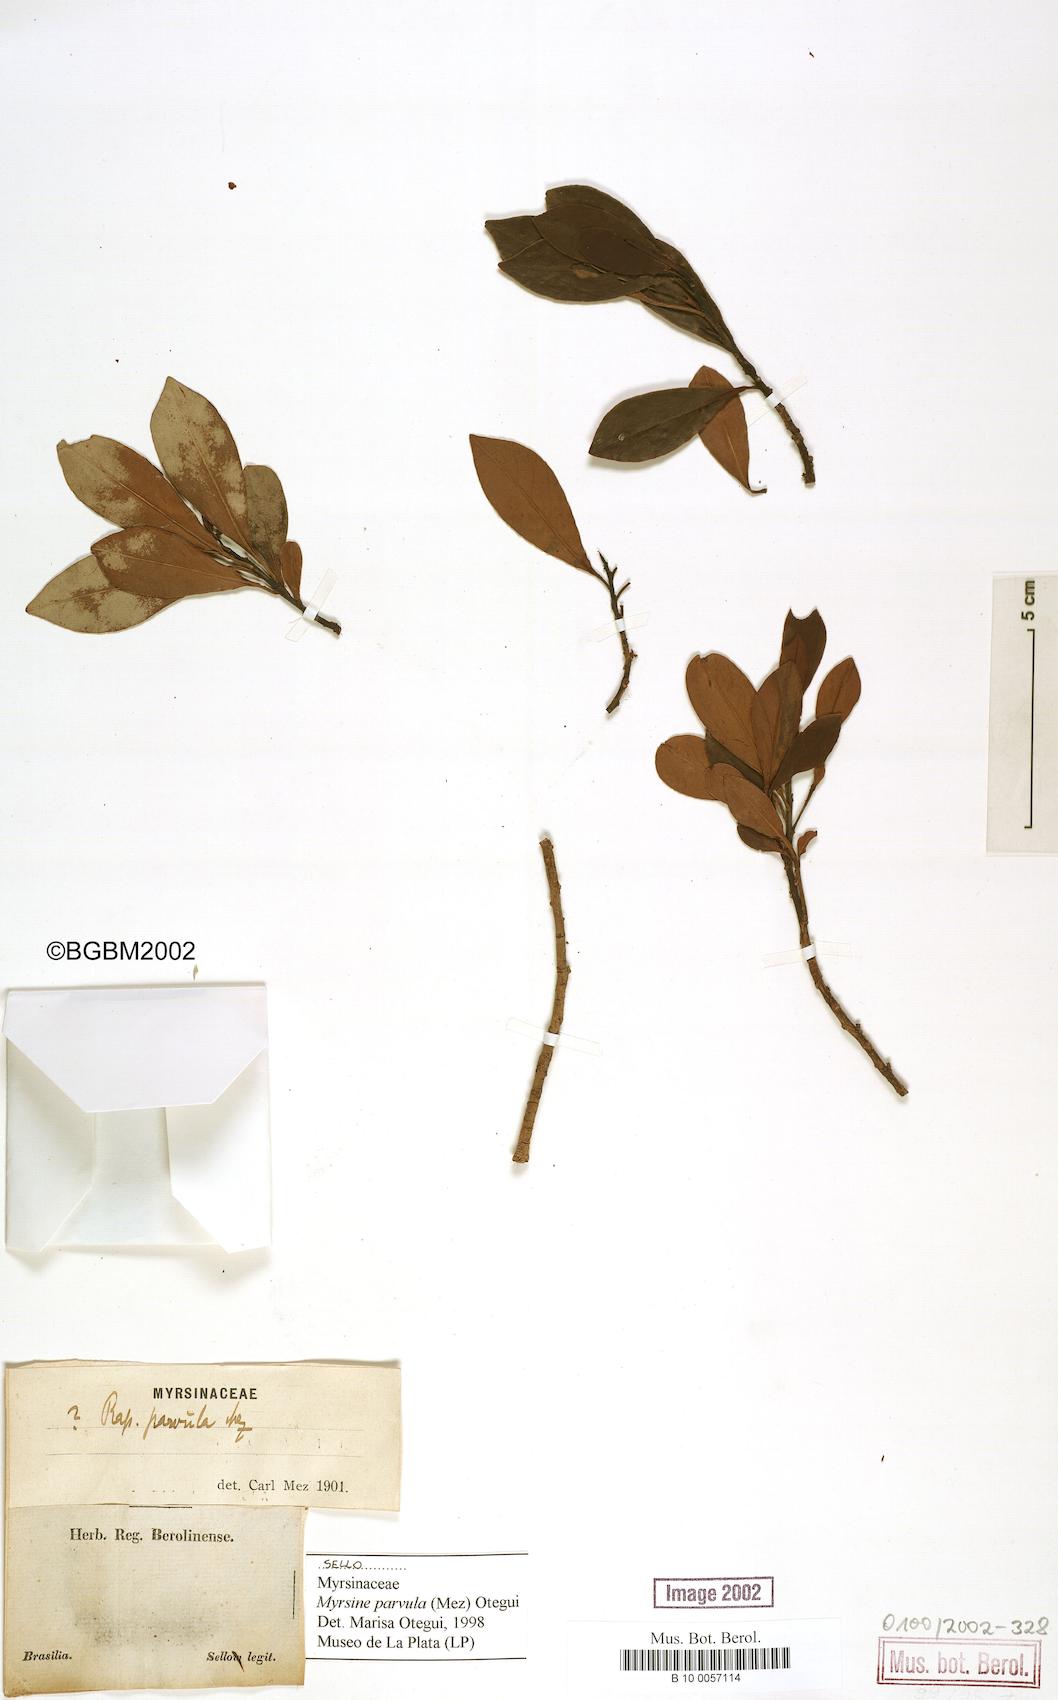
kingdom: Plantae
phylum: Tracheophyta
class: Magnoliopsida
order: Ericales
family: Primulaceae
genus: Myrsine
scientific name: Myrsine lorentziana
